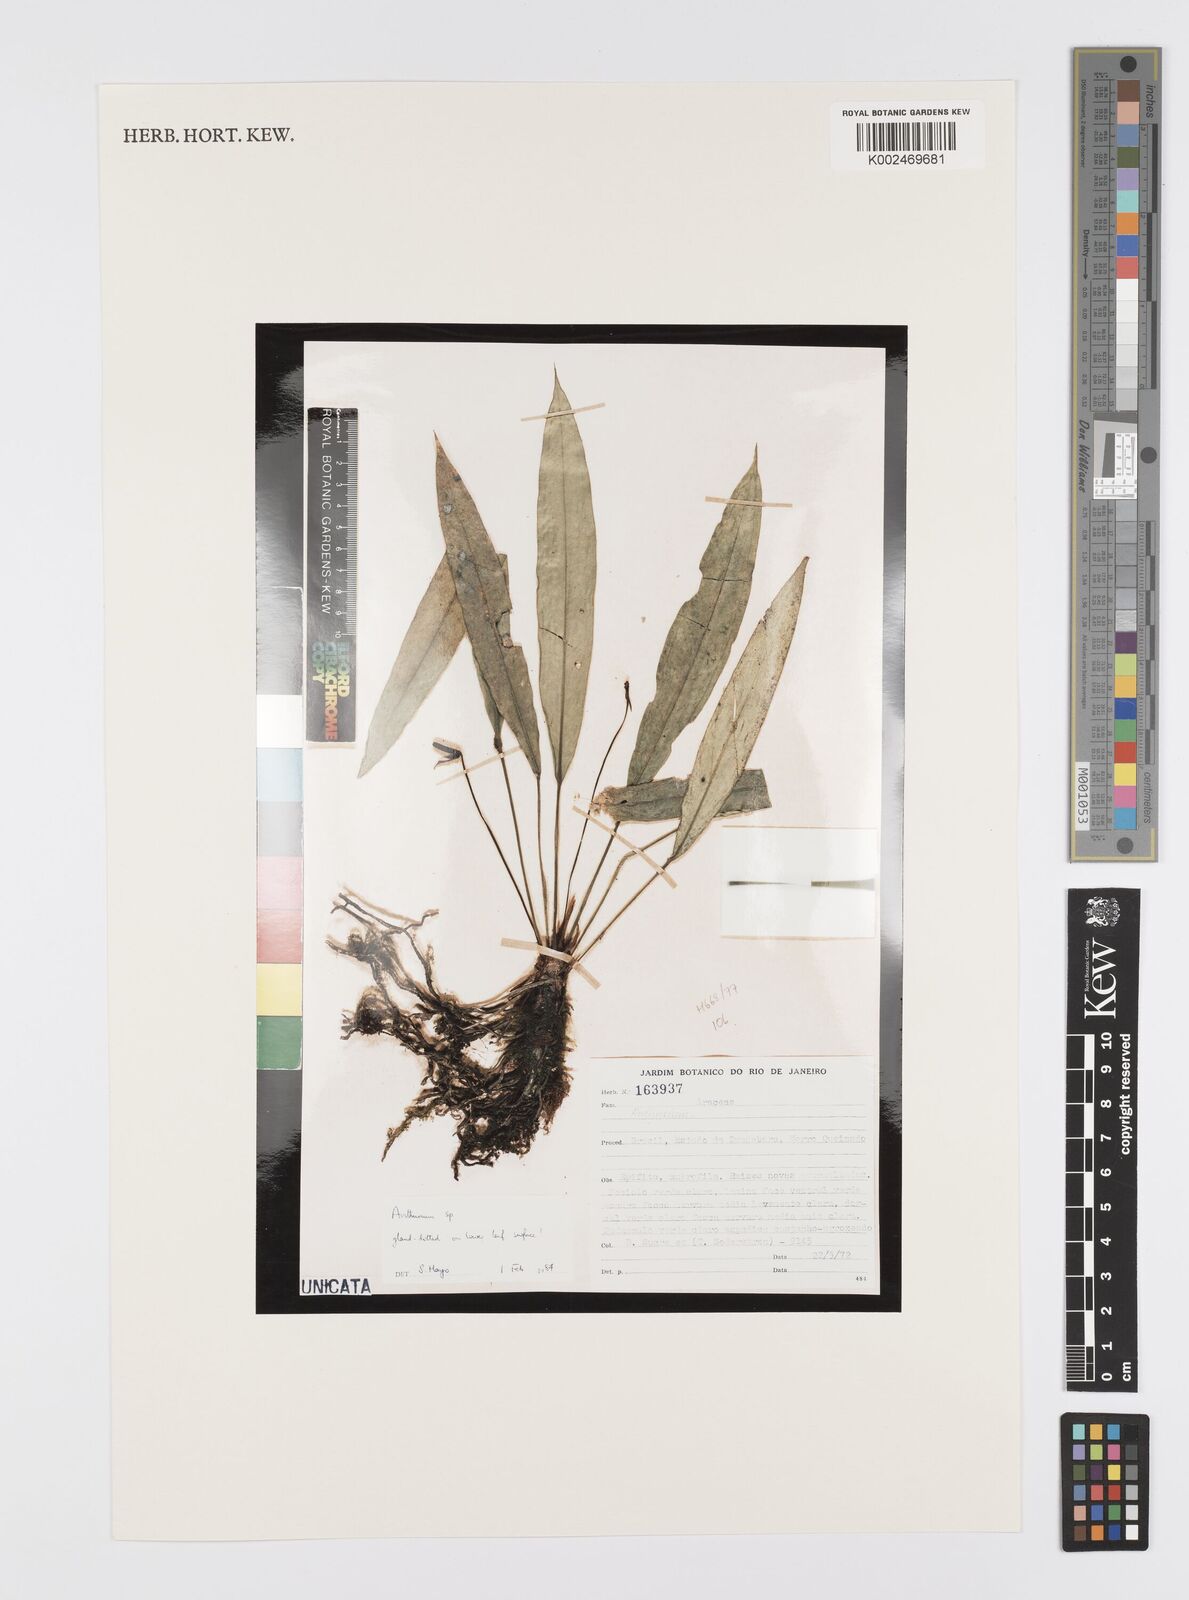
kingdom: Plantae
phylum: Tracheophyta
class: Liliopsida
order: Alismatales
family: Araceae
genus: Anthurium
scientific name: Anthurium
